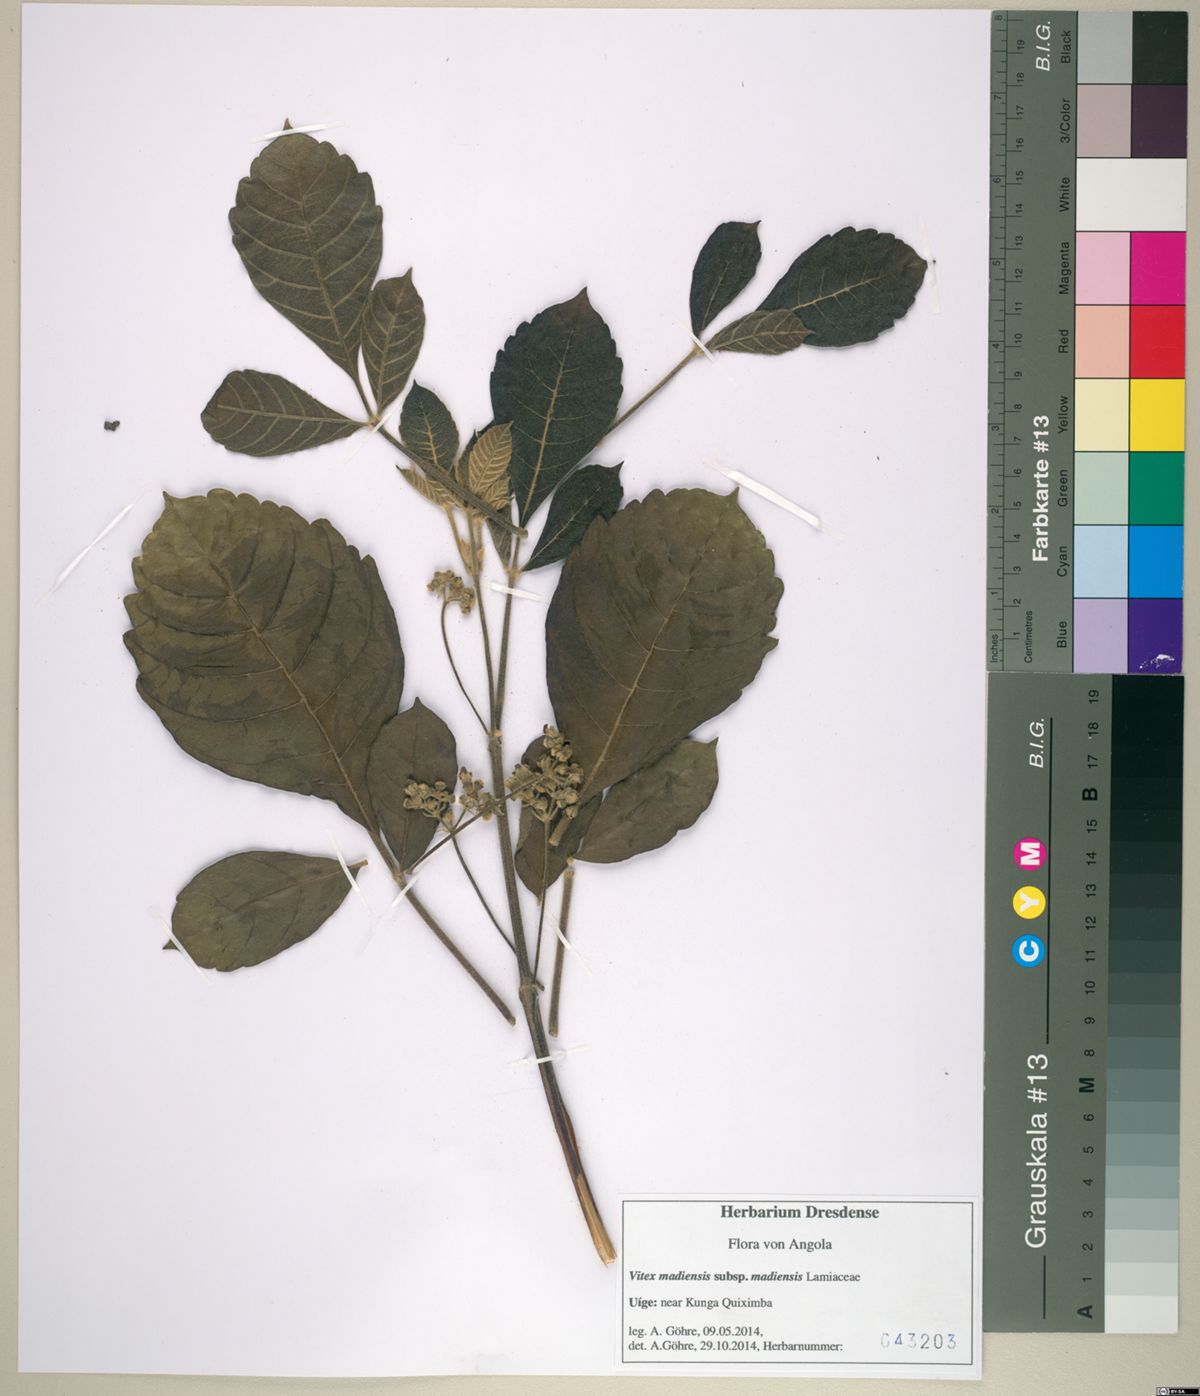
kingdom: Plantae
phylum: Tracheophyta
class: Magnoliopsida
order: Lamiales
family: Lamiaceae
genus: Vitex
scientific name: Vitex madiensis
